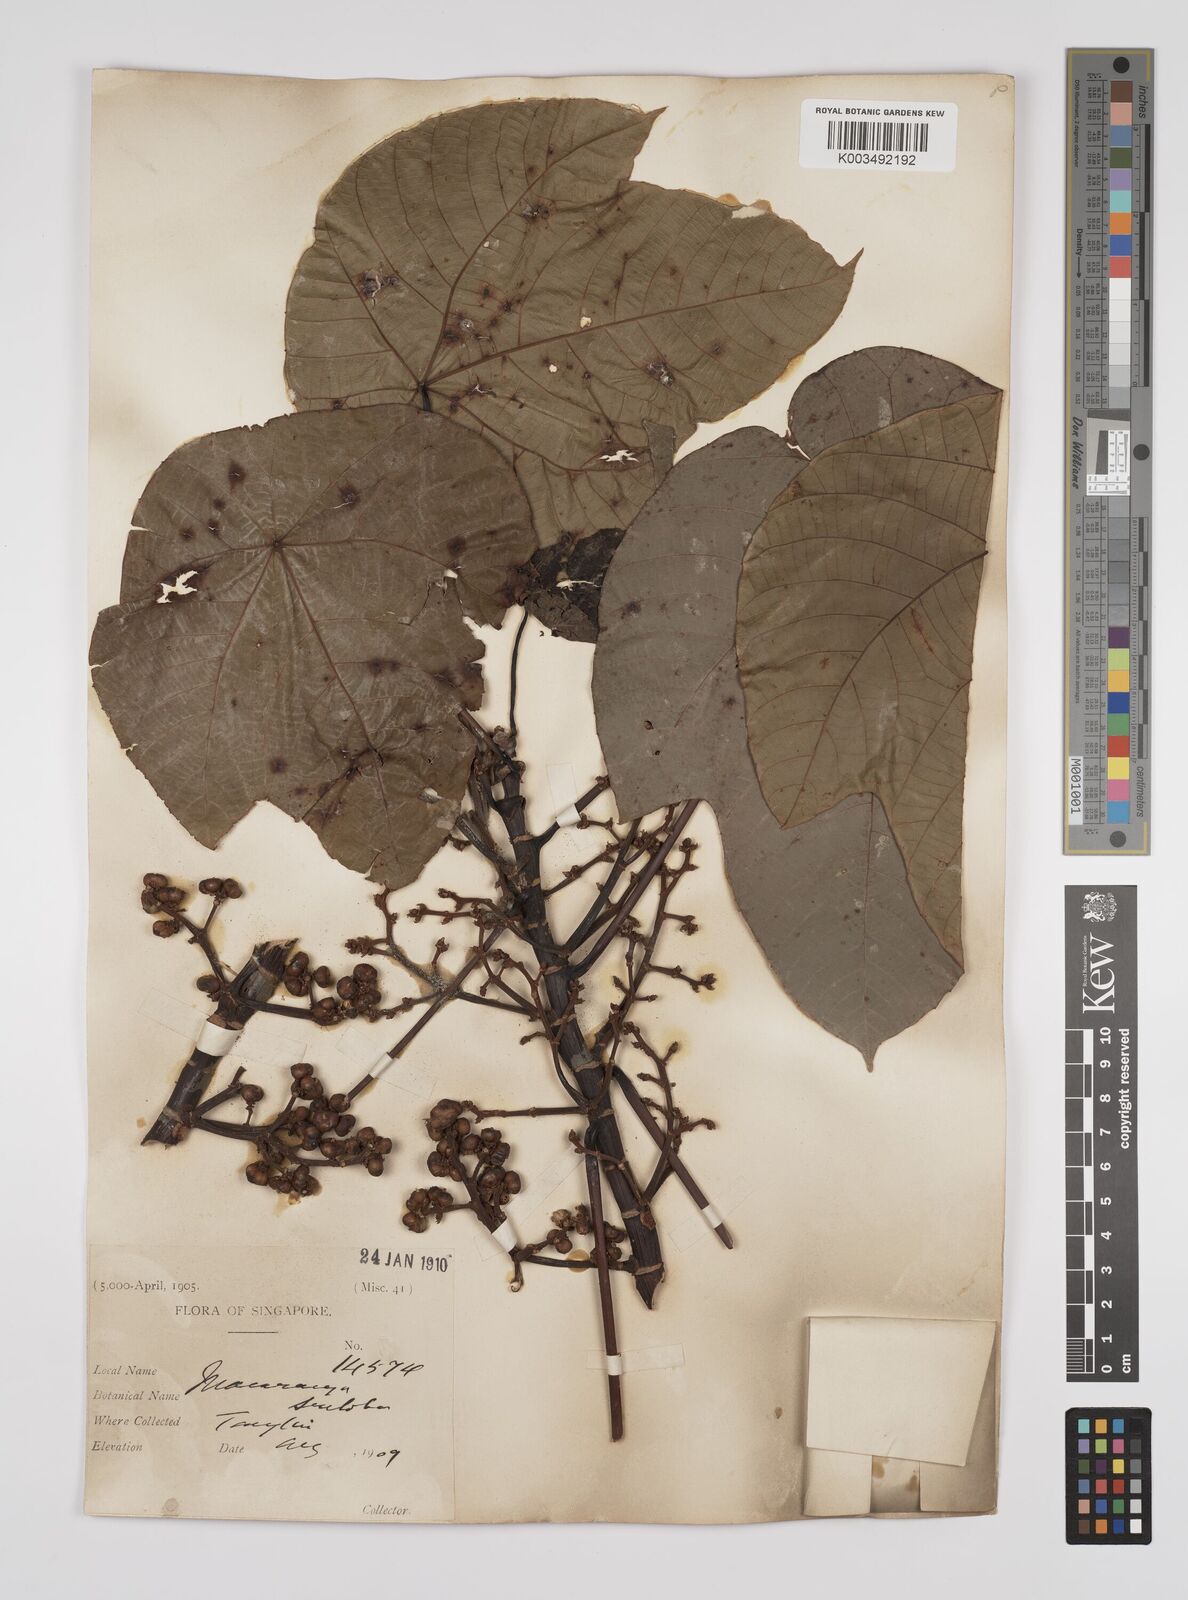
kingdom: Plantae
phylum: Tracheophyta
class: Magnoliopsida
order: Malpighiales
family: Euphorbiaceae
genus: Macaranga
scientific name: Macaranga triloba
